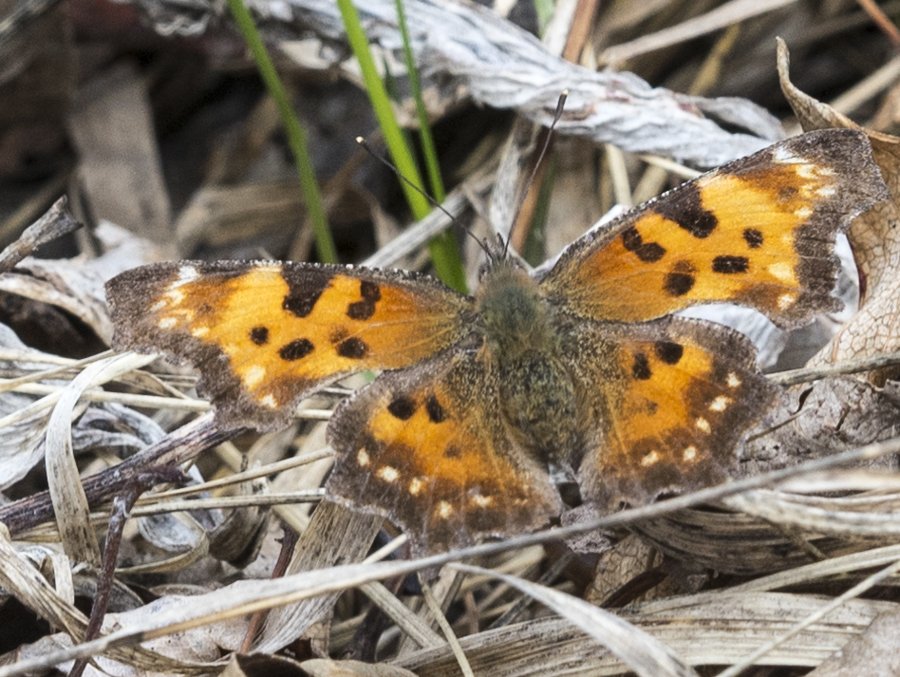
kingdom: Animalia
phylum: Arthropoda
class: Insecta
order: Lepidoptera
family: Nymphalidae
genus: Polygonia
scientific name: Polygonia faunus
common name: Green Comma
